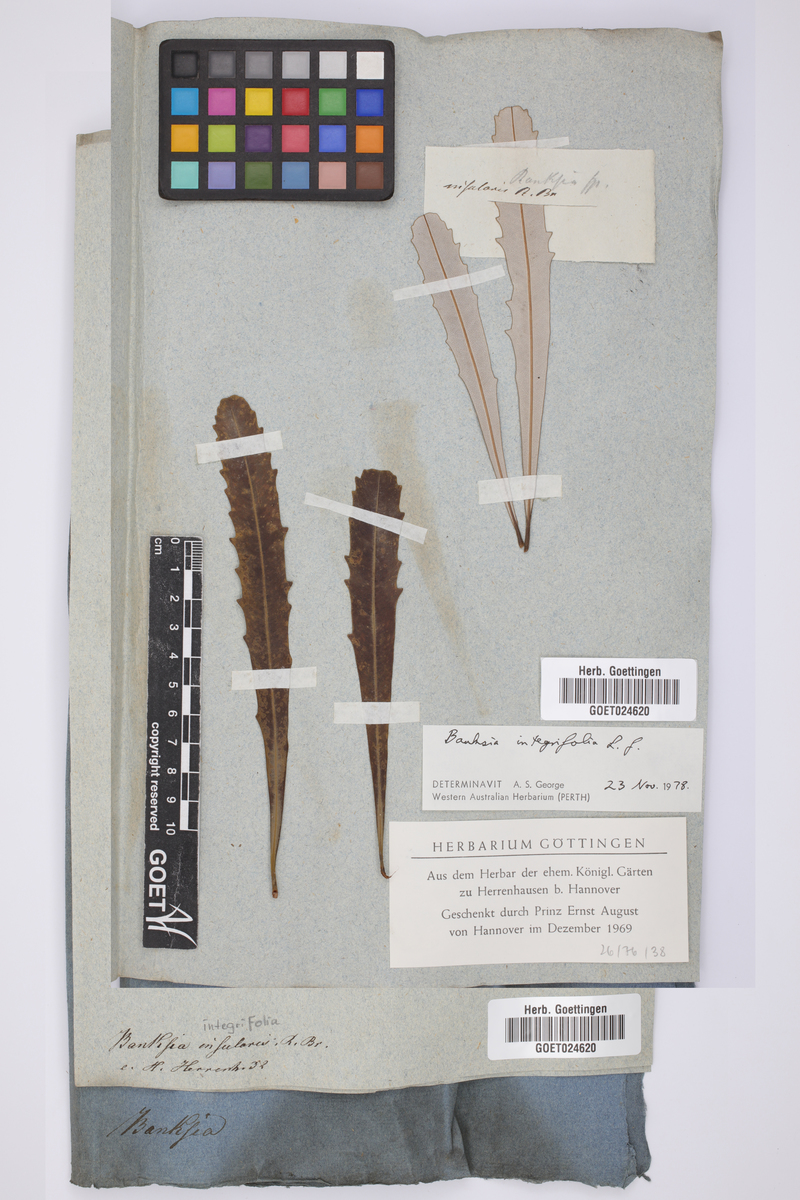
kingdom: Plantae
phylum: Tracheophyta
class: Magnoliopsida
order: Proteales
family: Proteaceae
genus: Banksia
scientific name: Banksia integrifolia
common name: White-honeysuckle
